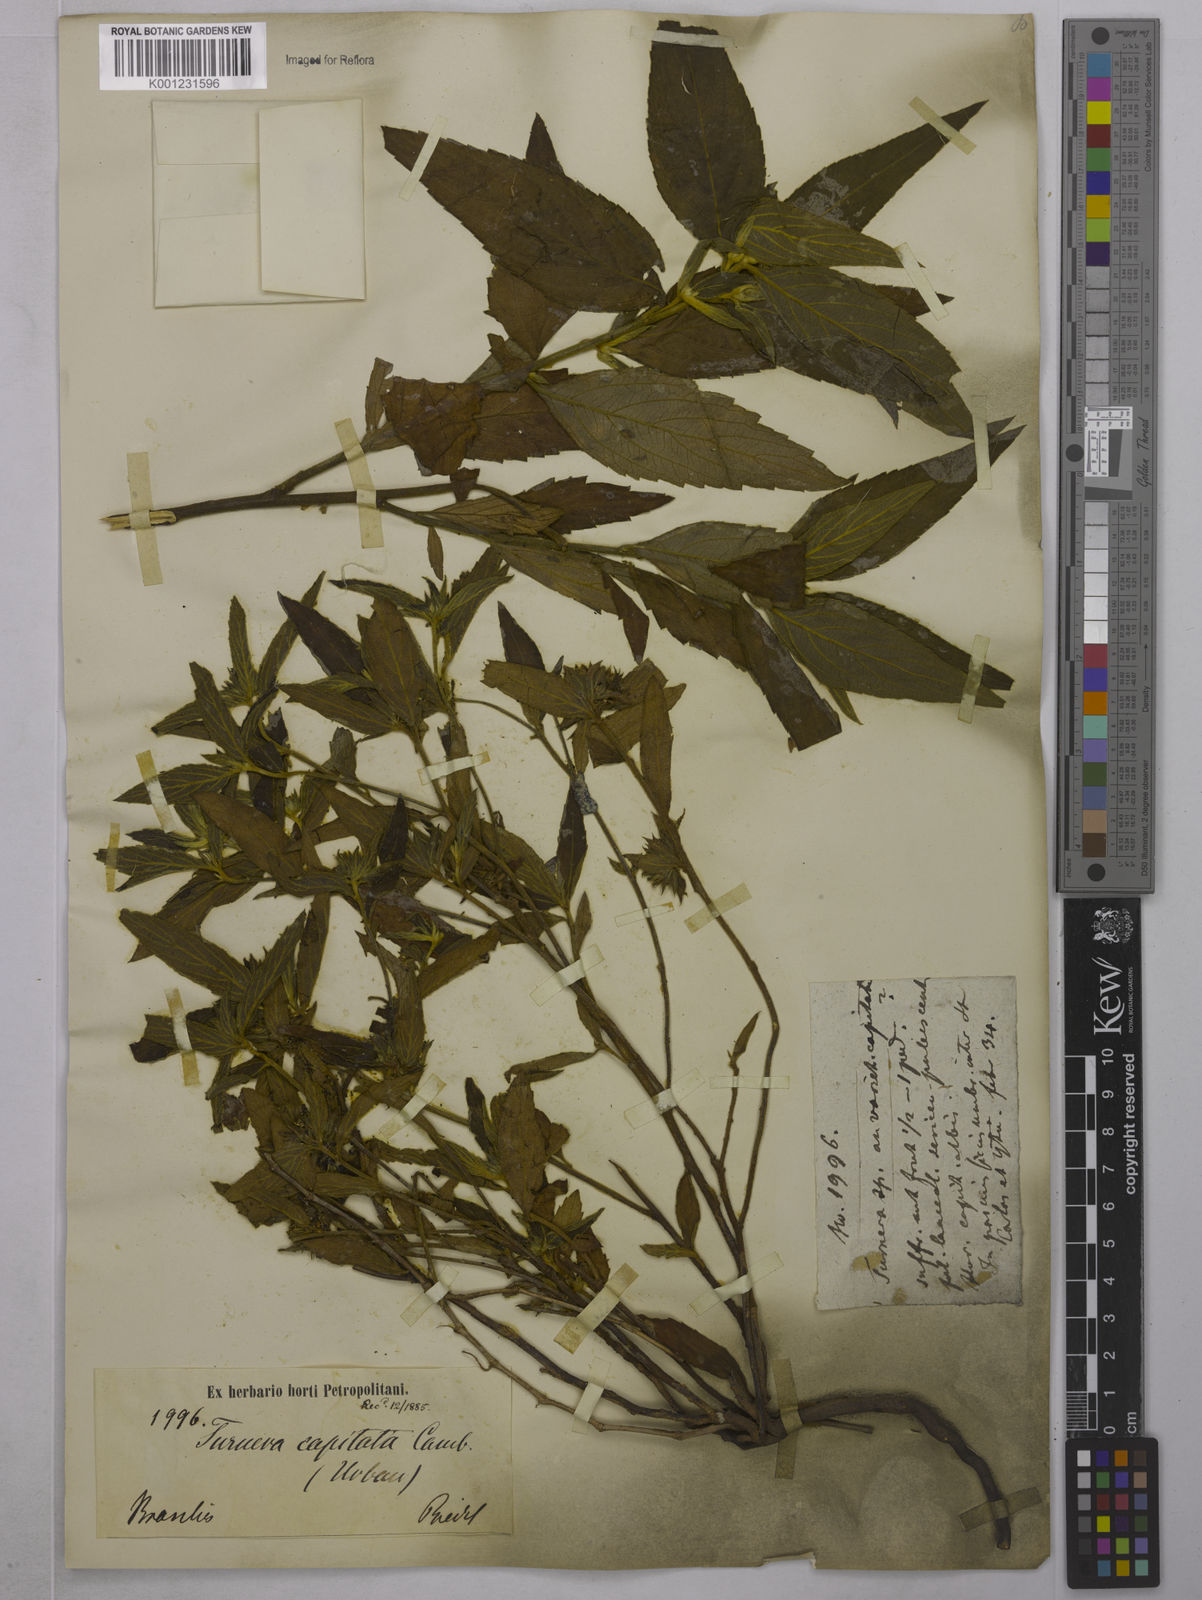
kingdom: Plantae
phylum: Tracheophyta
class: Magnoliopsida
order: Malpighiales
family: Turneraceae
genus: Oxossia
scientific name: Oxossia capitata
